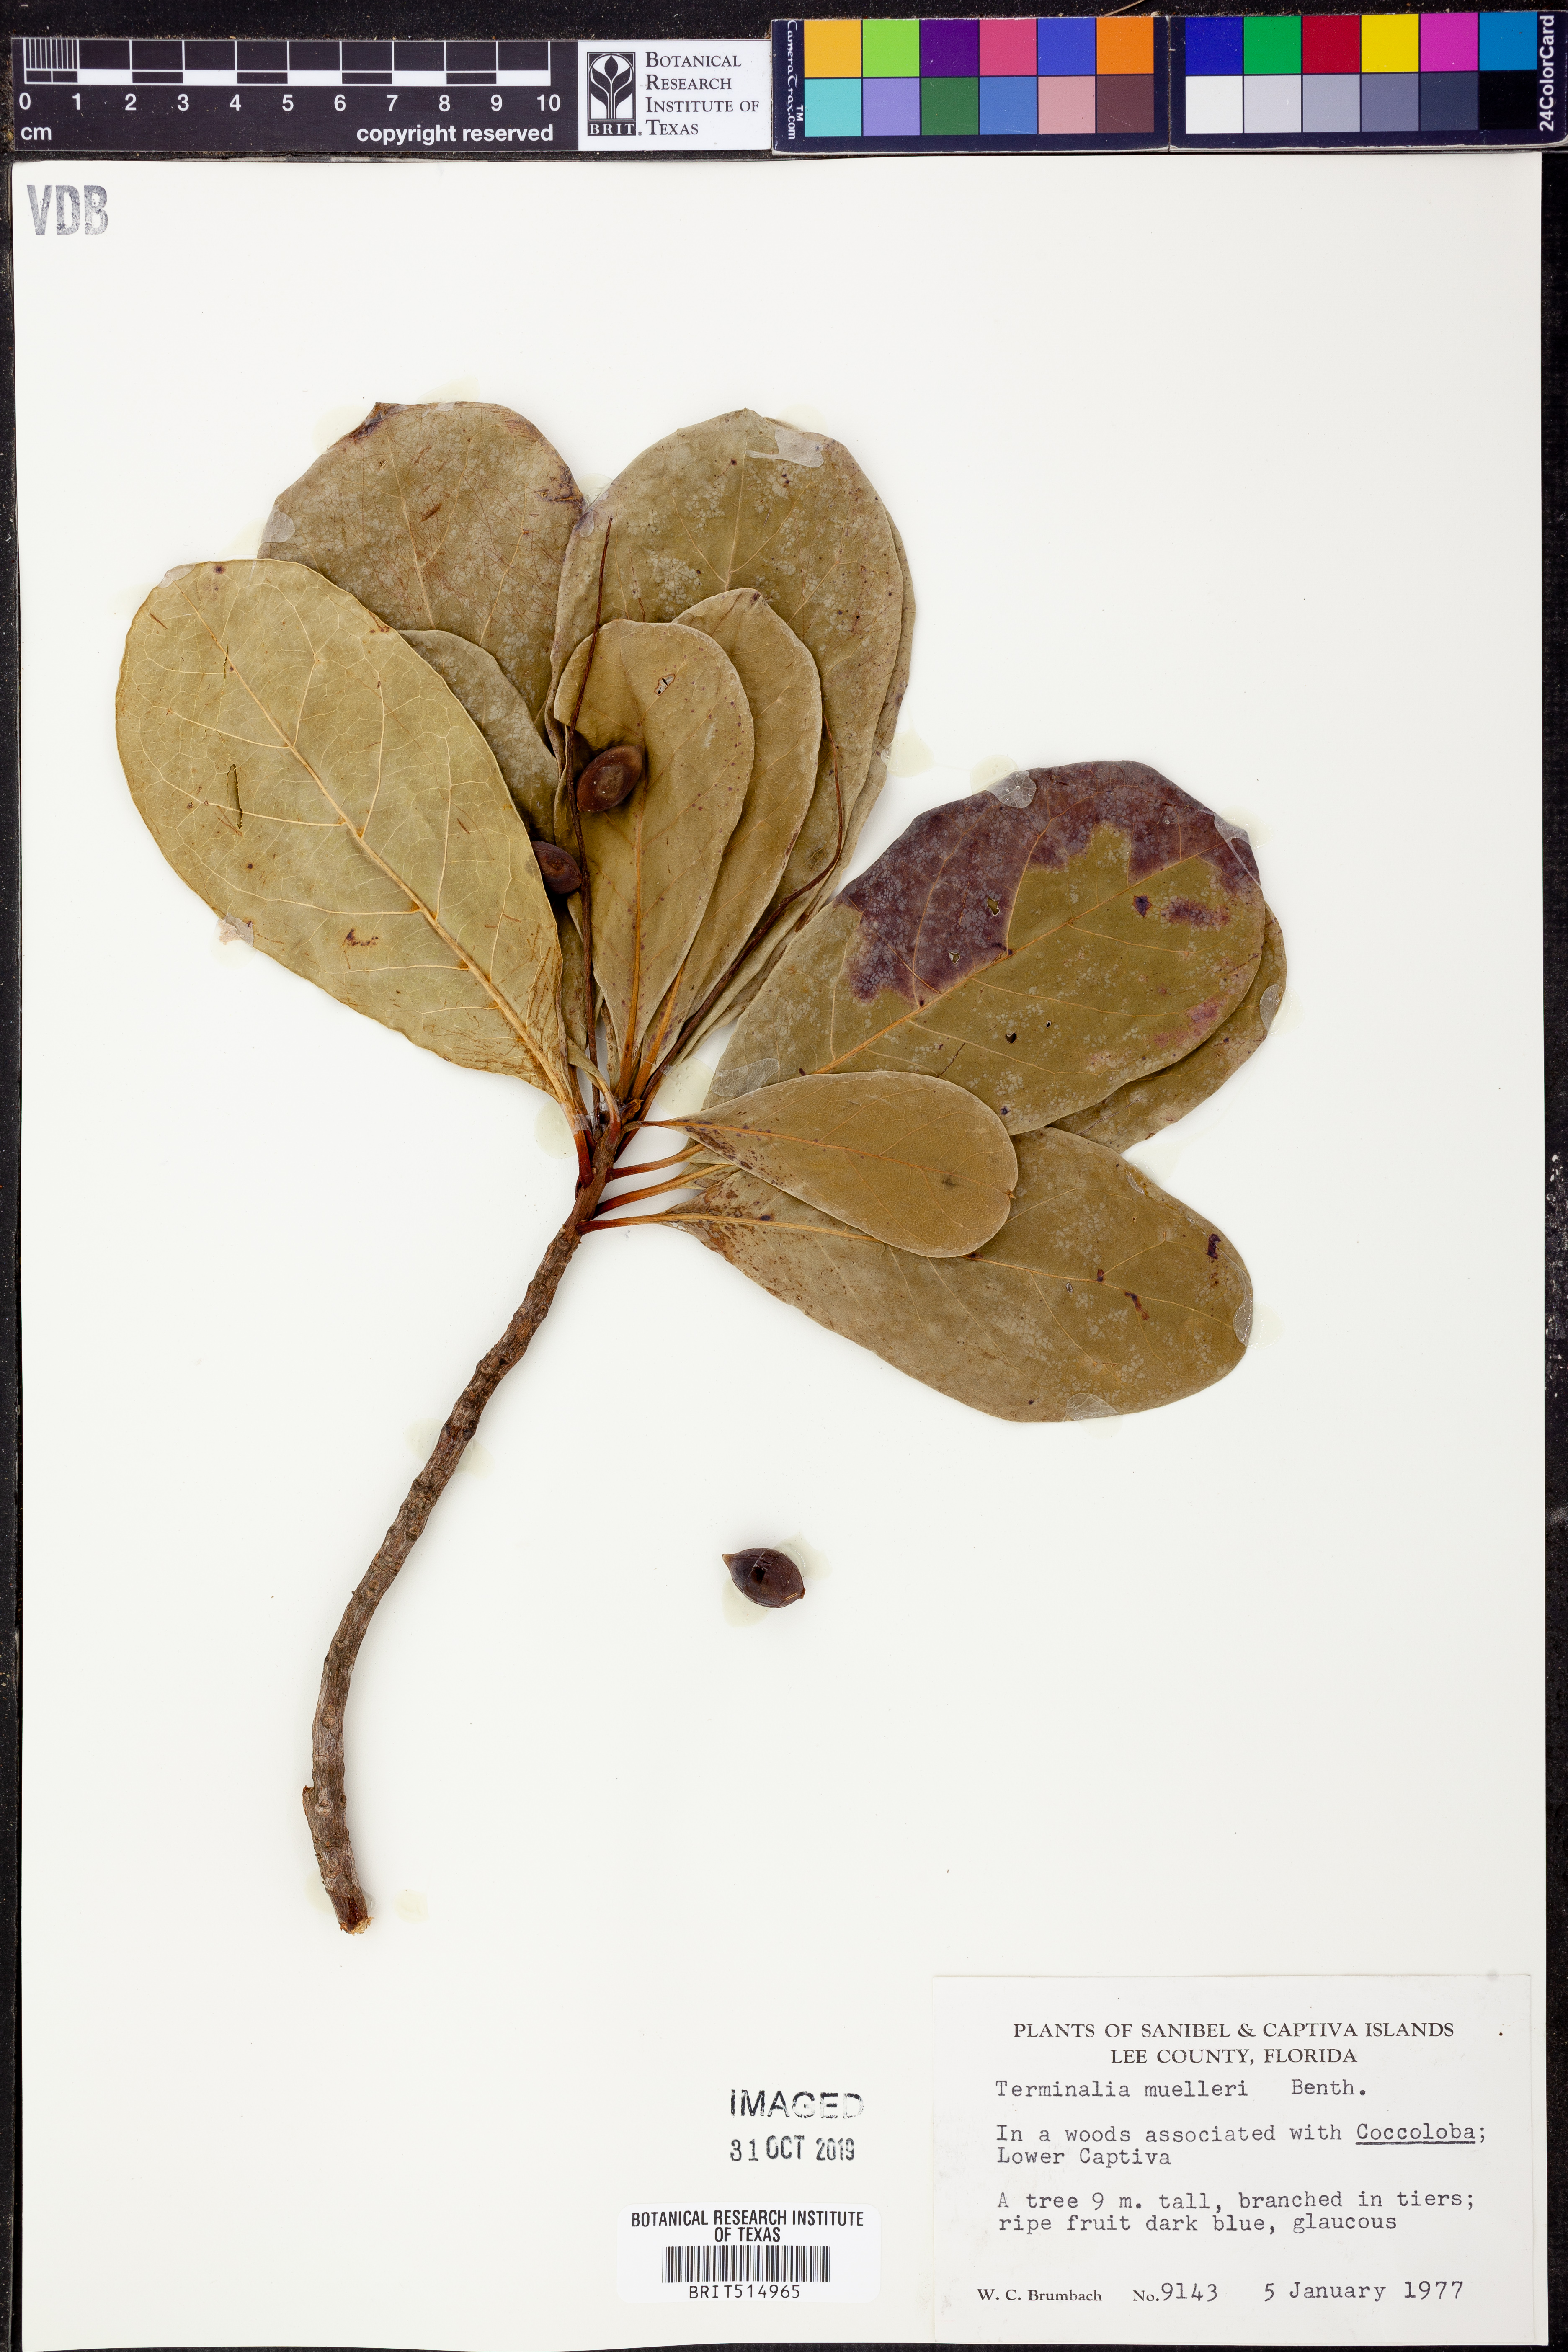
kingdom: Plantae
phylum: Tracheophyta
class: Magnoliopsida
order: Myrtales
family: Combretaceae
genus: Terminalia
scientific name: Terminalia muelleri
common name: Australian almond
